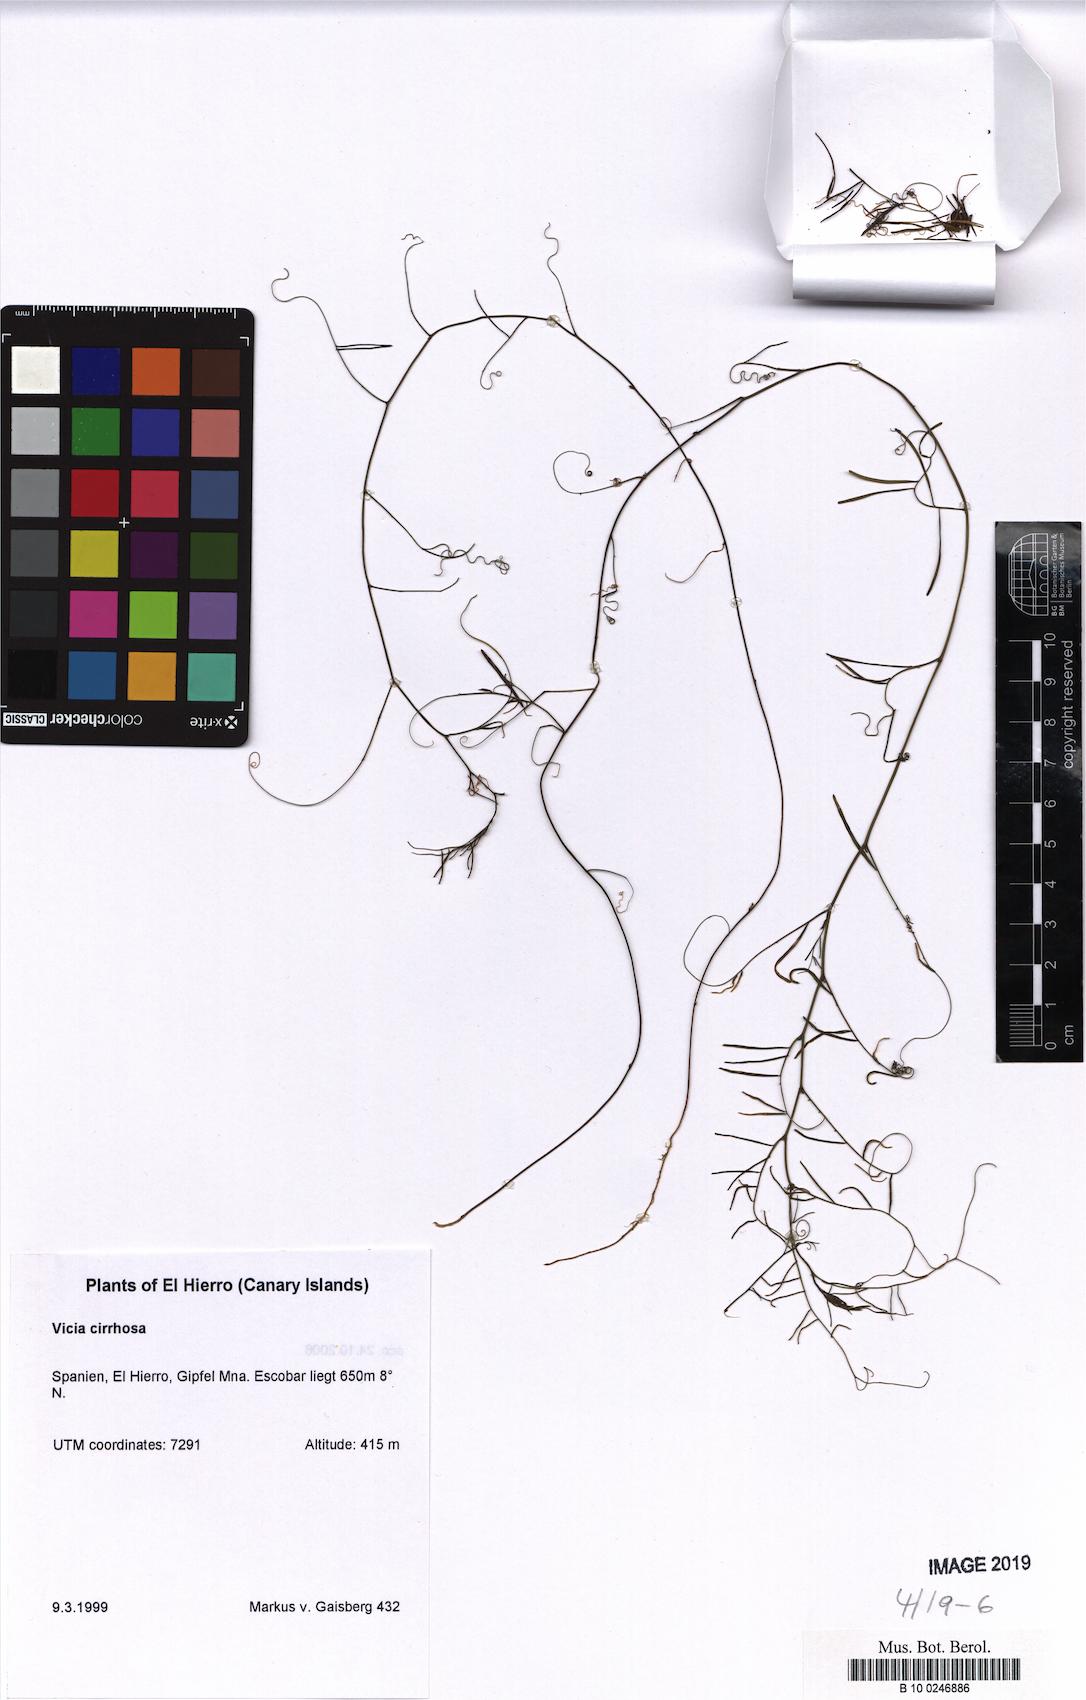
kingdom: Plantae
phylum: Tracheophyta
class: Magnoliopsida
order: Fabales
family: Fabaceae
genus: Vicia
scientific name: Vicia aphylla
